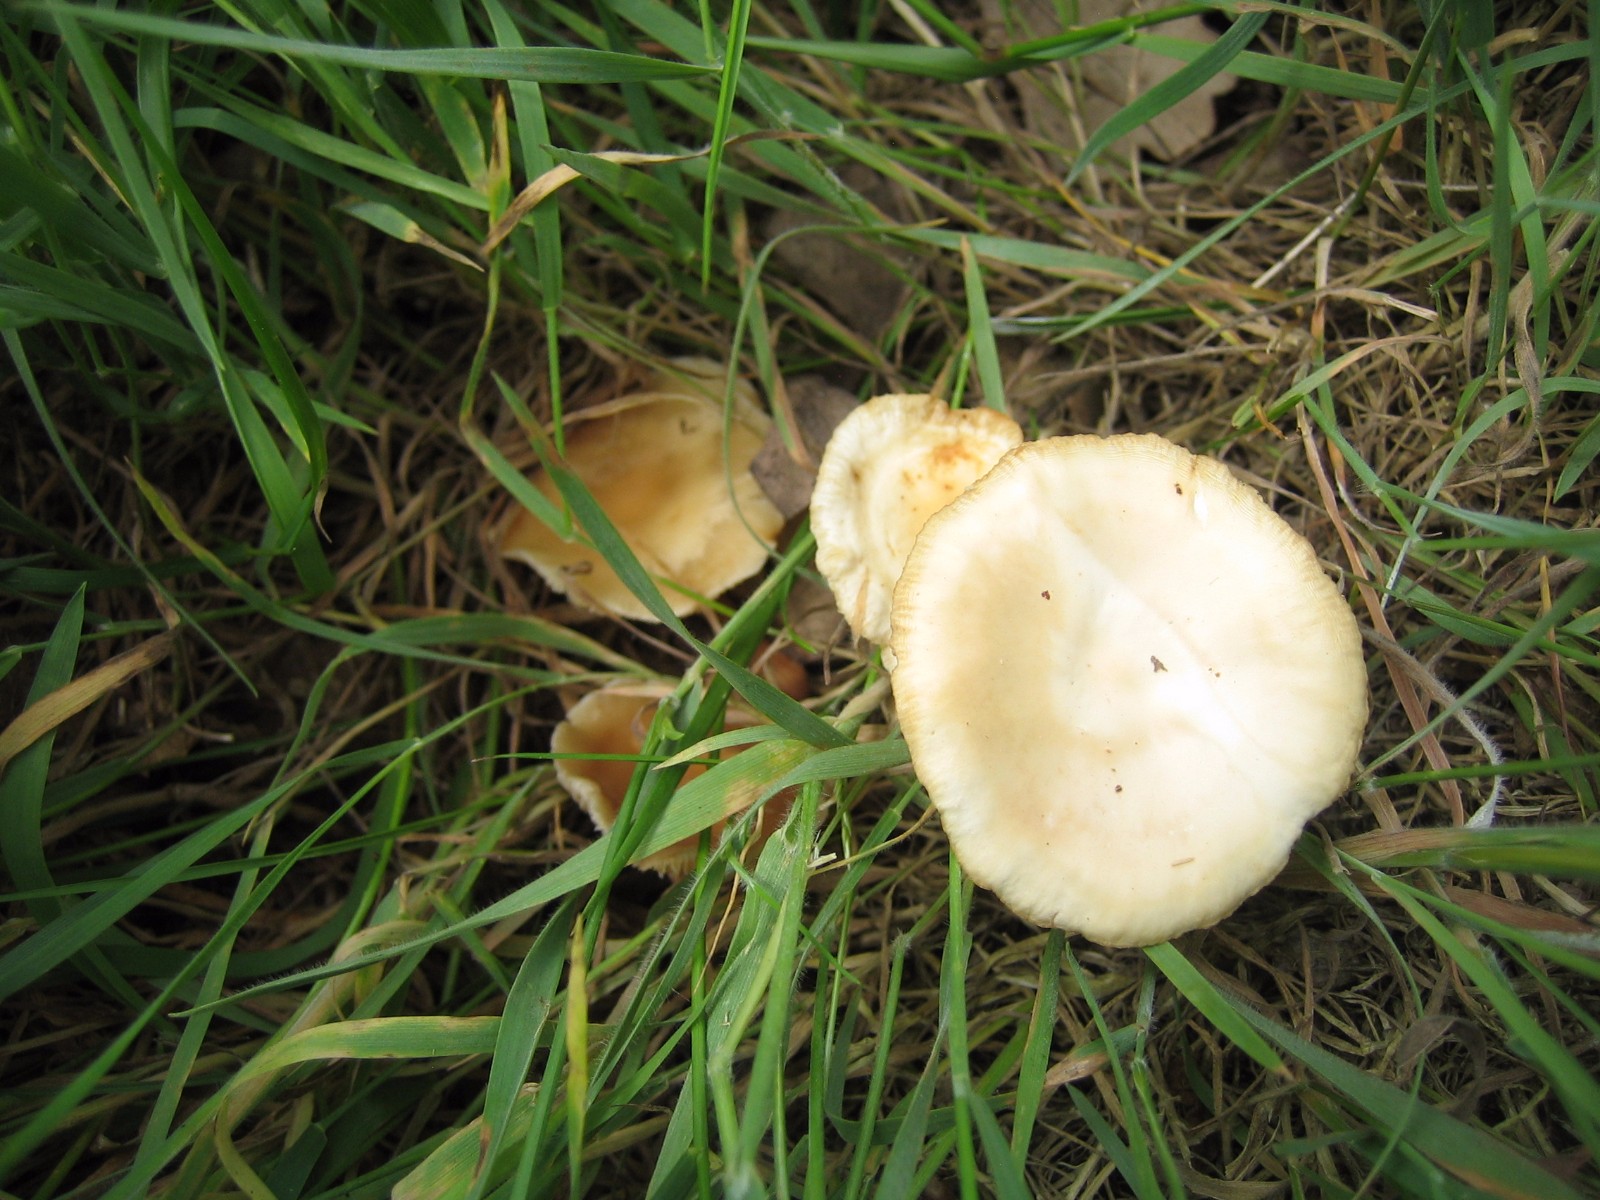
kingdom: Fungi
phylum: Basidiomycota
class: Agaricomycetes
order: Agaricales
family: Omphalotaceae
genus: Gymnopus
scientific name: Gymnopus
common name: fladhat
